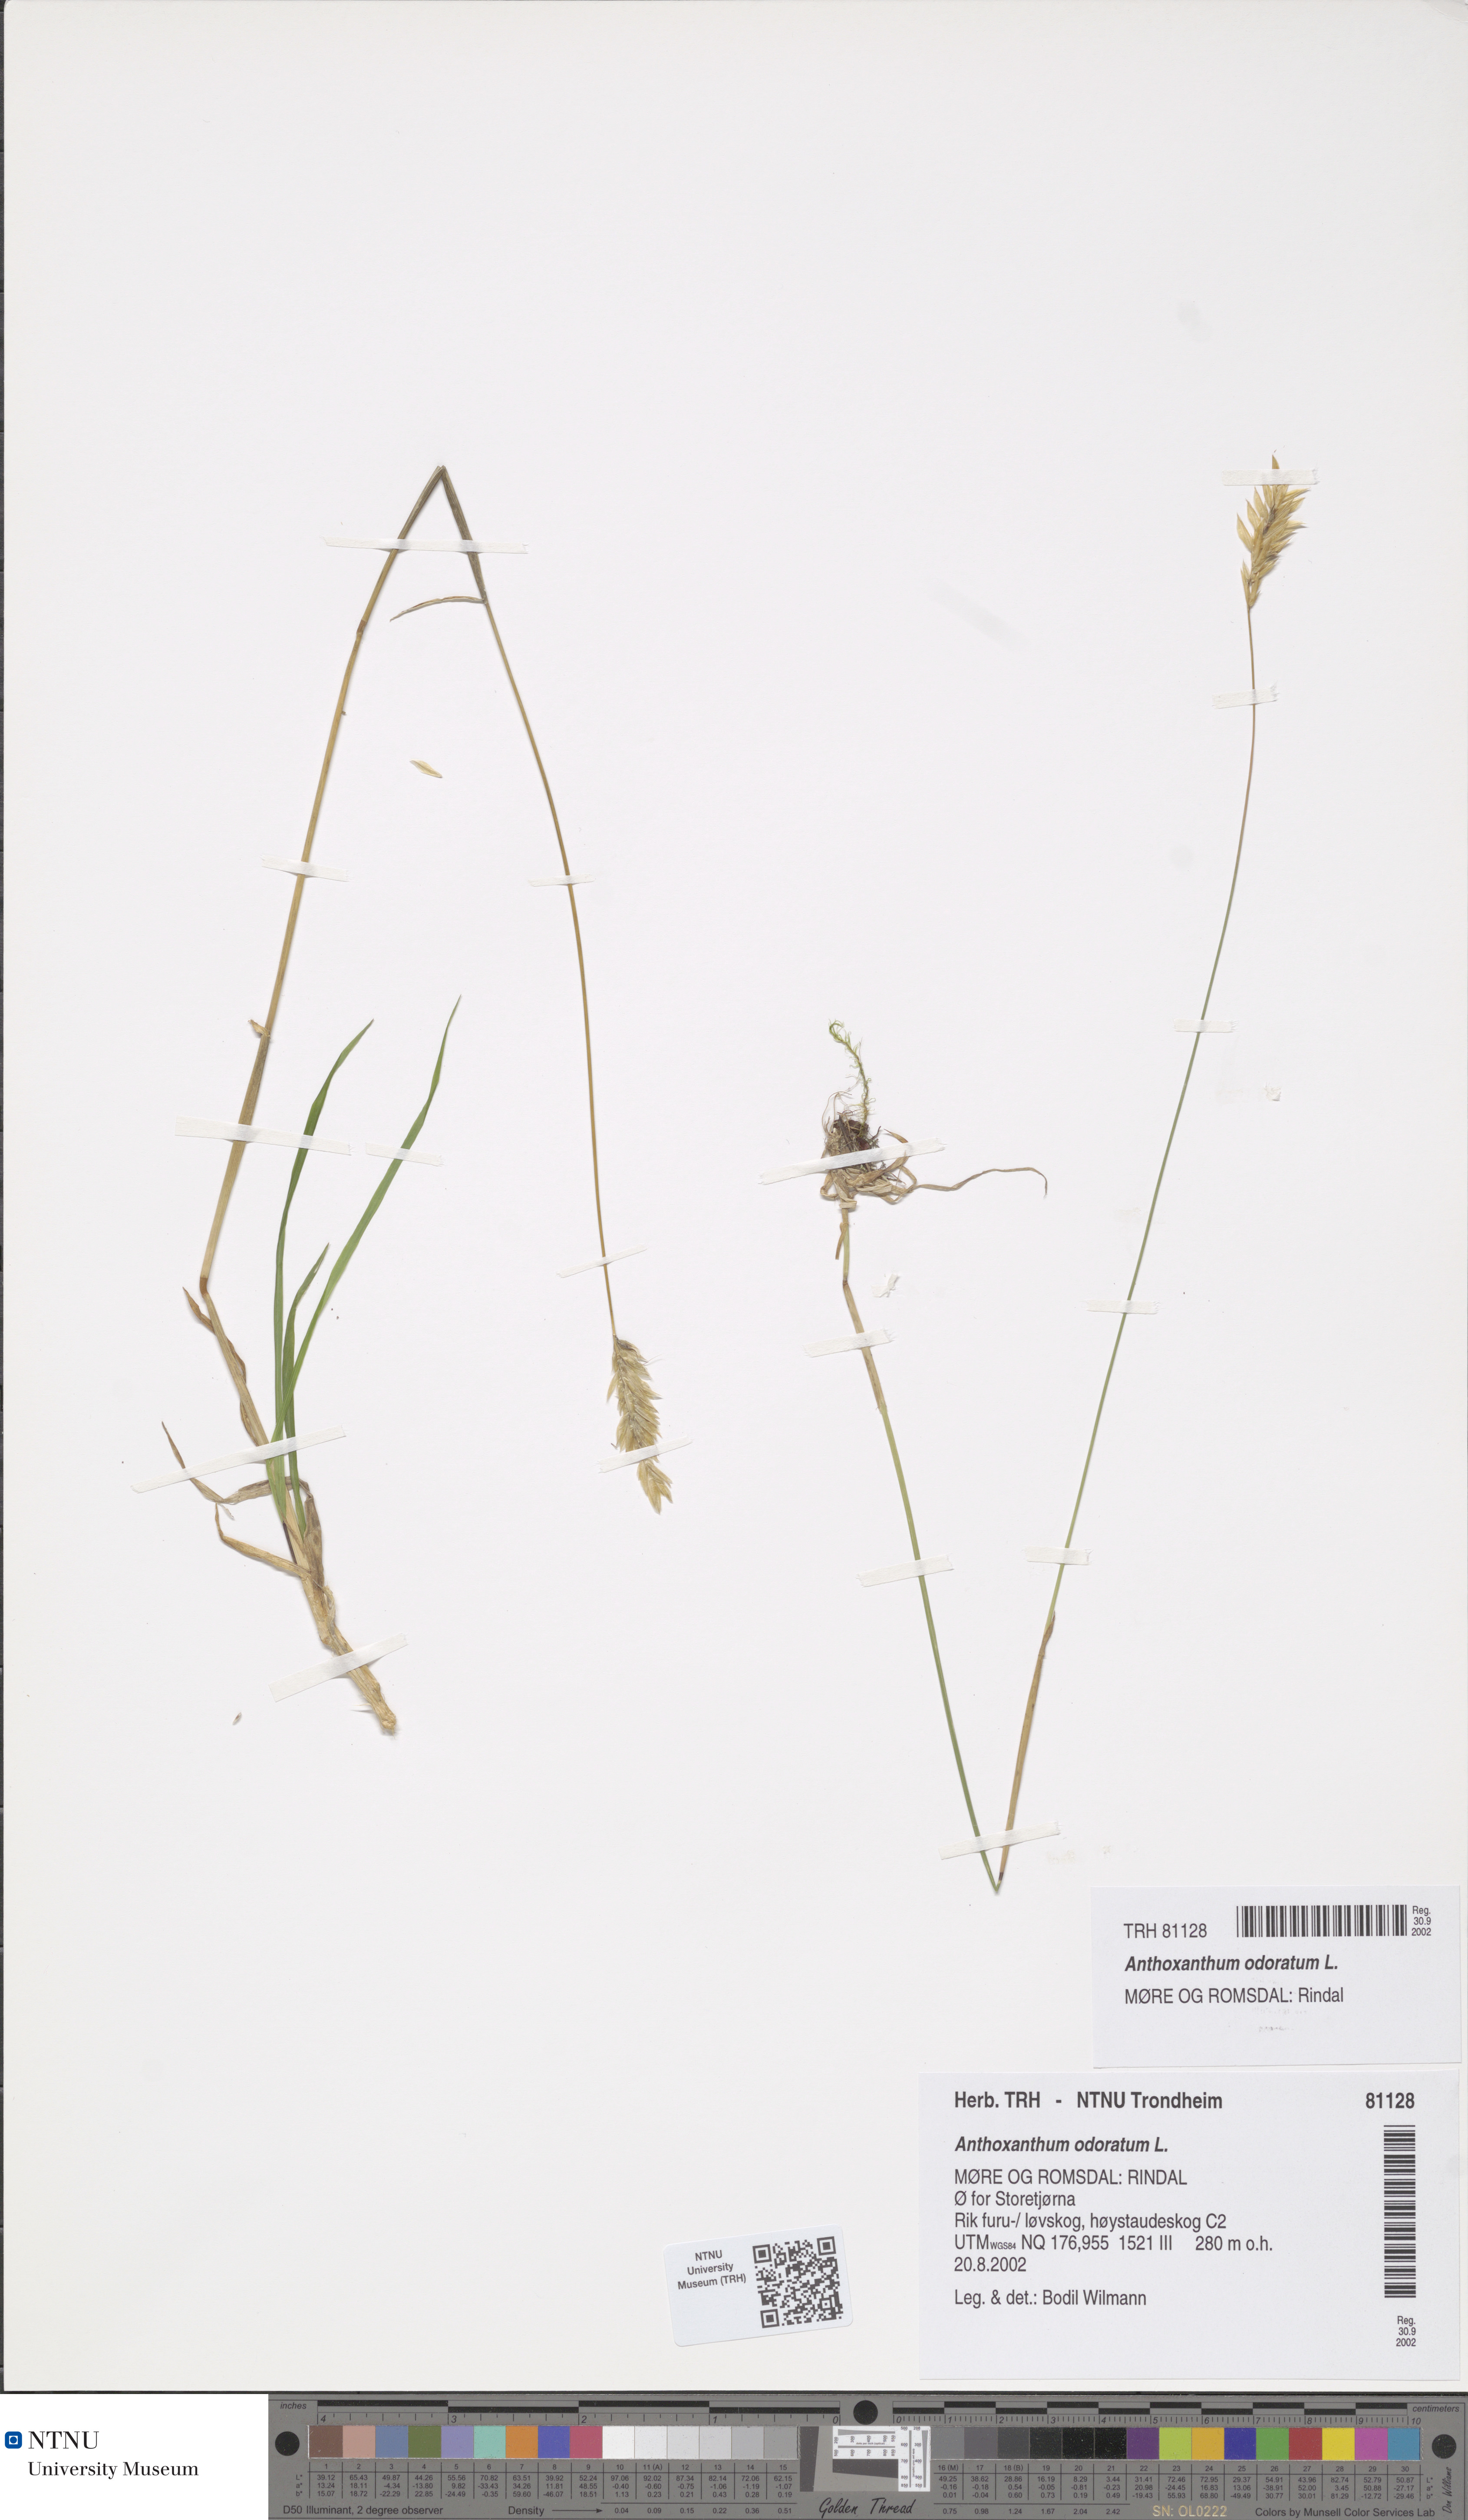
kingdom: Plantae
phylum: Tracheophyta
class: Liliopsida
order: Poales
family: Poaceae
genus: Anthoxanthum
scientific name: Anthoxanthum odoratum
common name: Sweet vernalgrass
